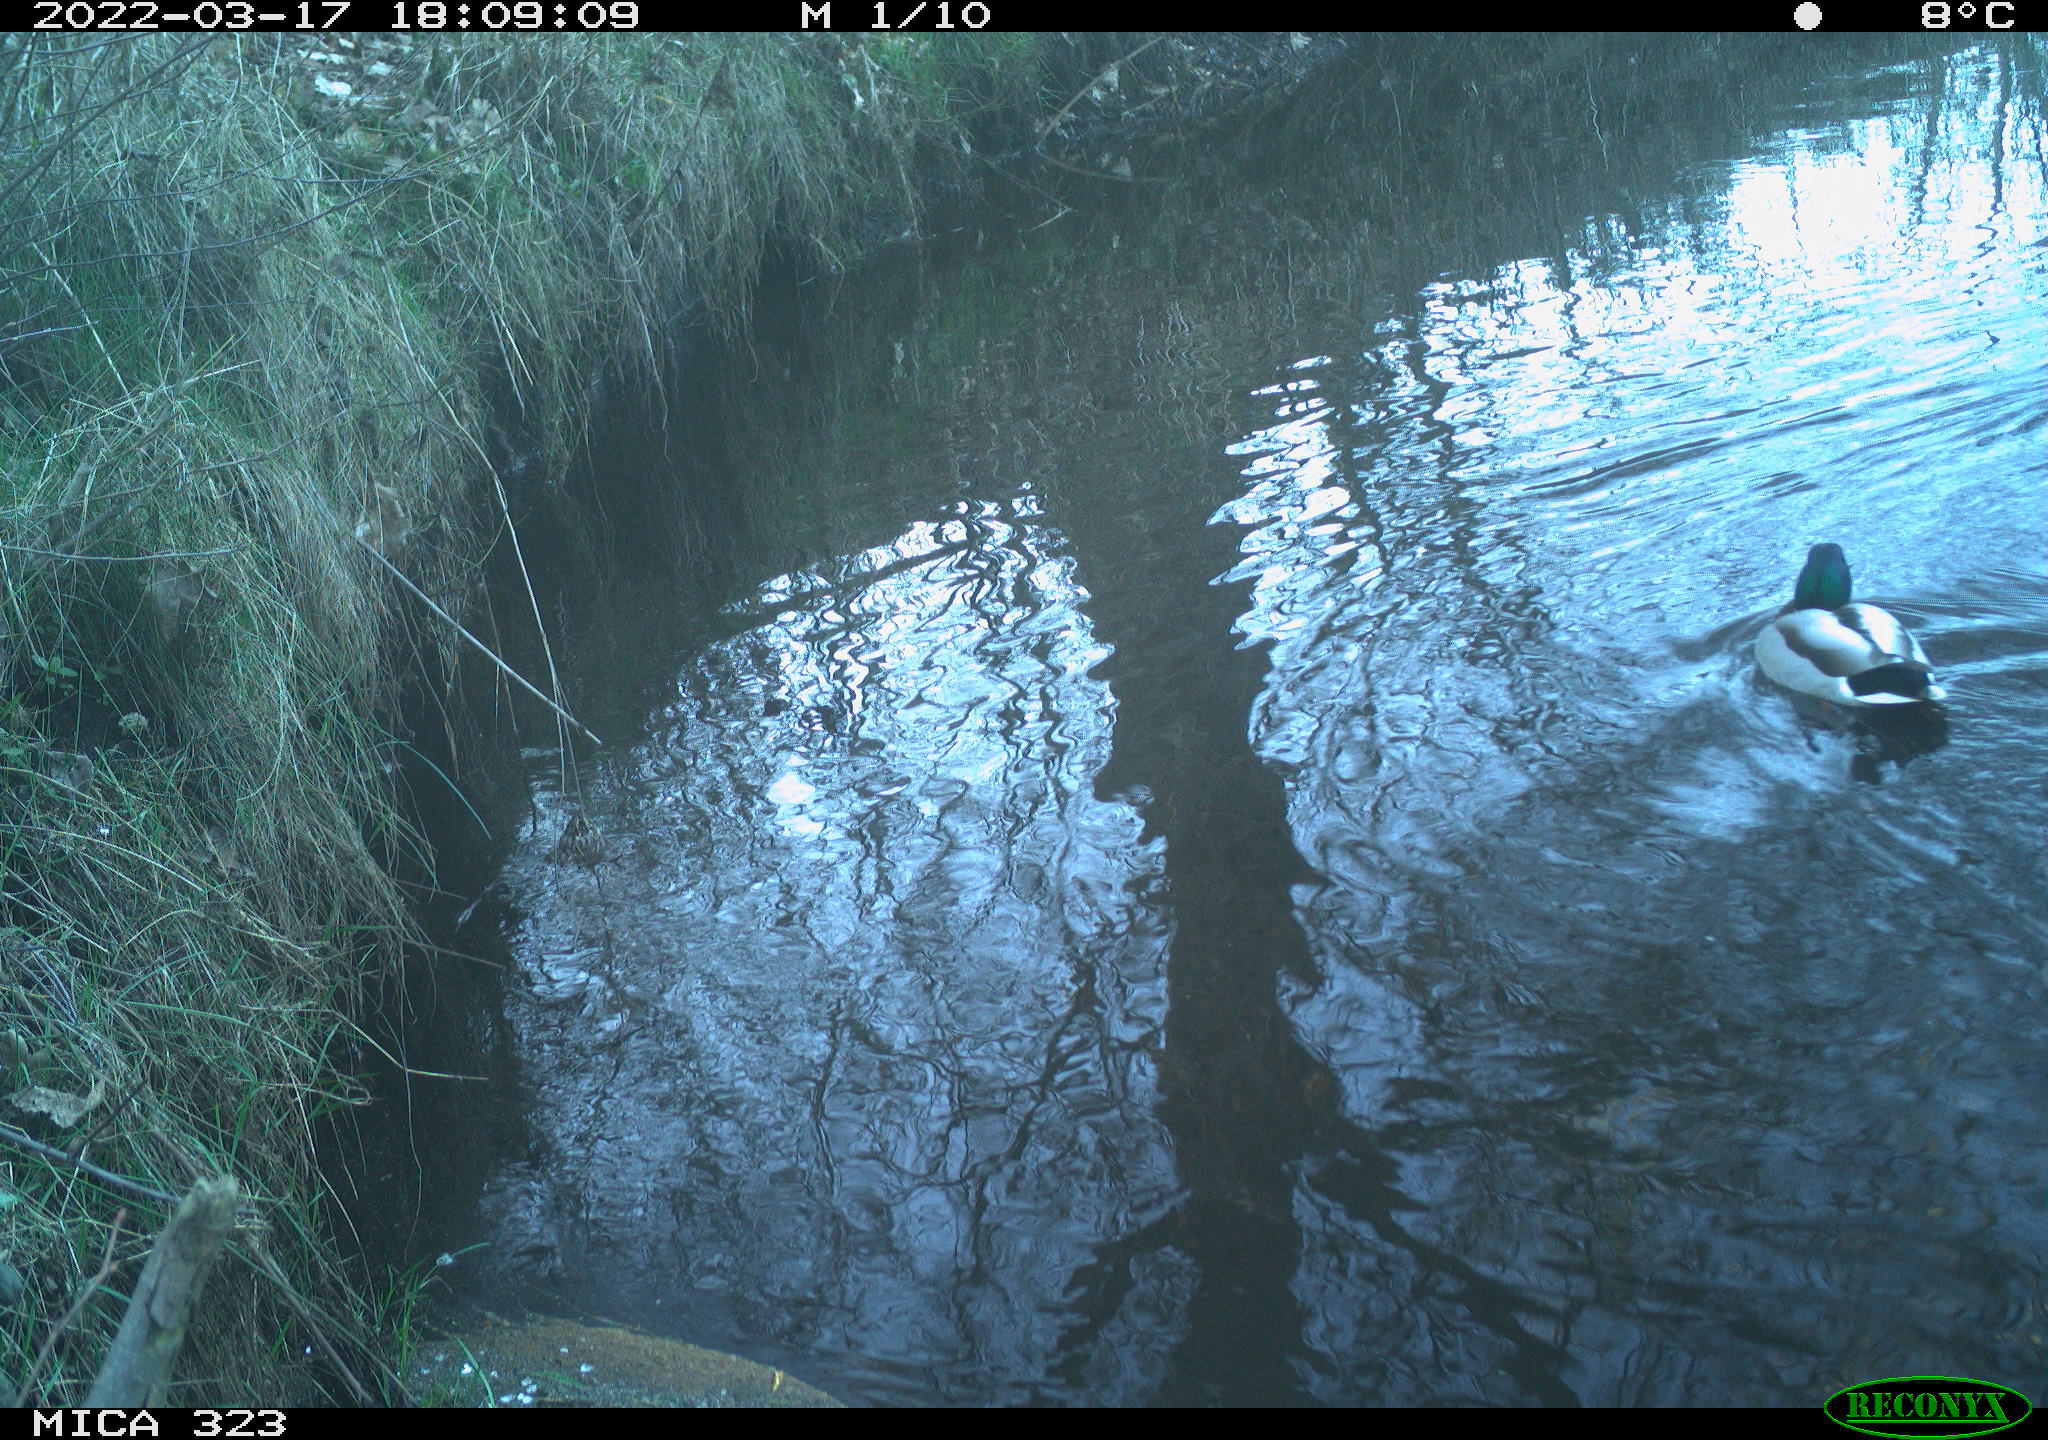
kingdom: Animalia
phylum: Chordata
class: Aves
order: Anseriformes
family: Anatidae
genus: Anas
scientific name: Anas platyrhynchos
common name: Mallard
